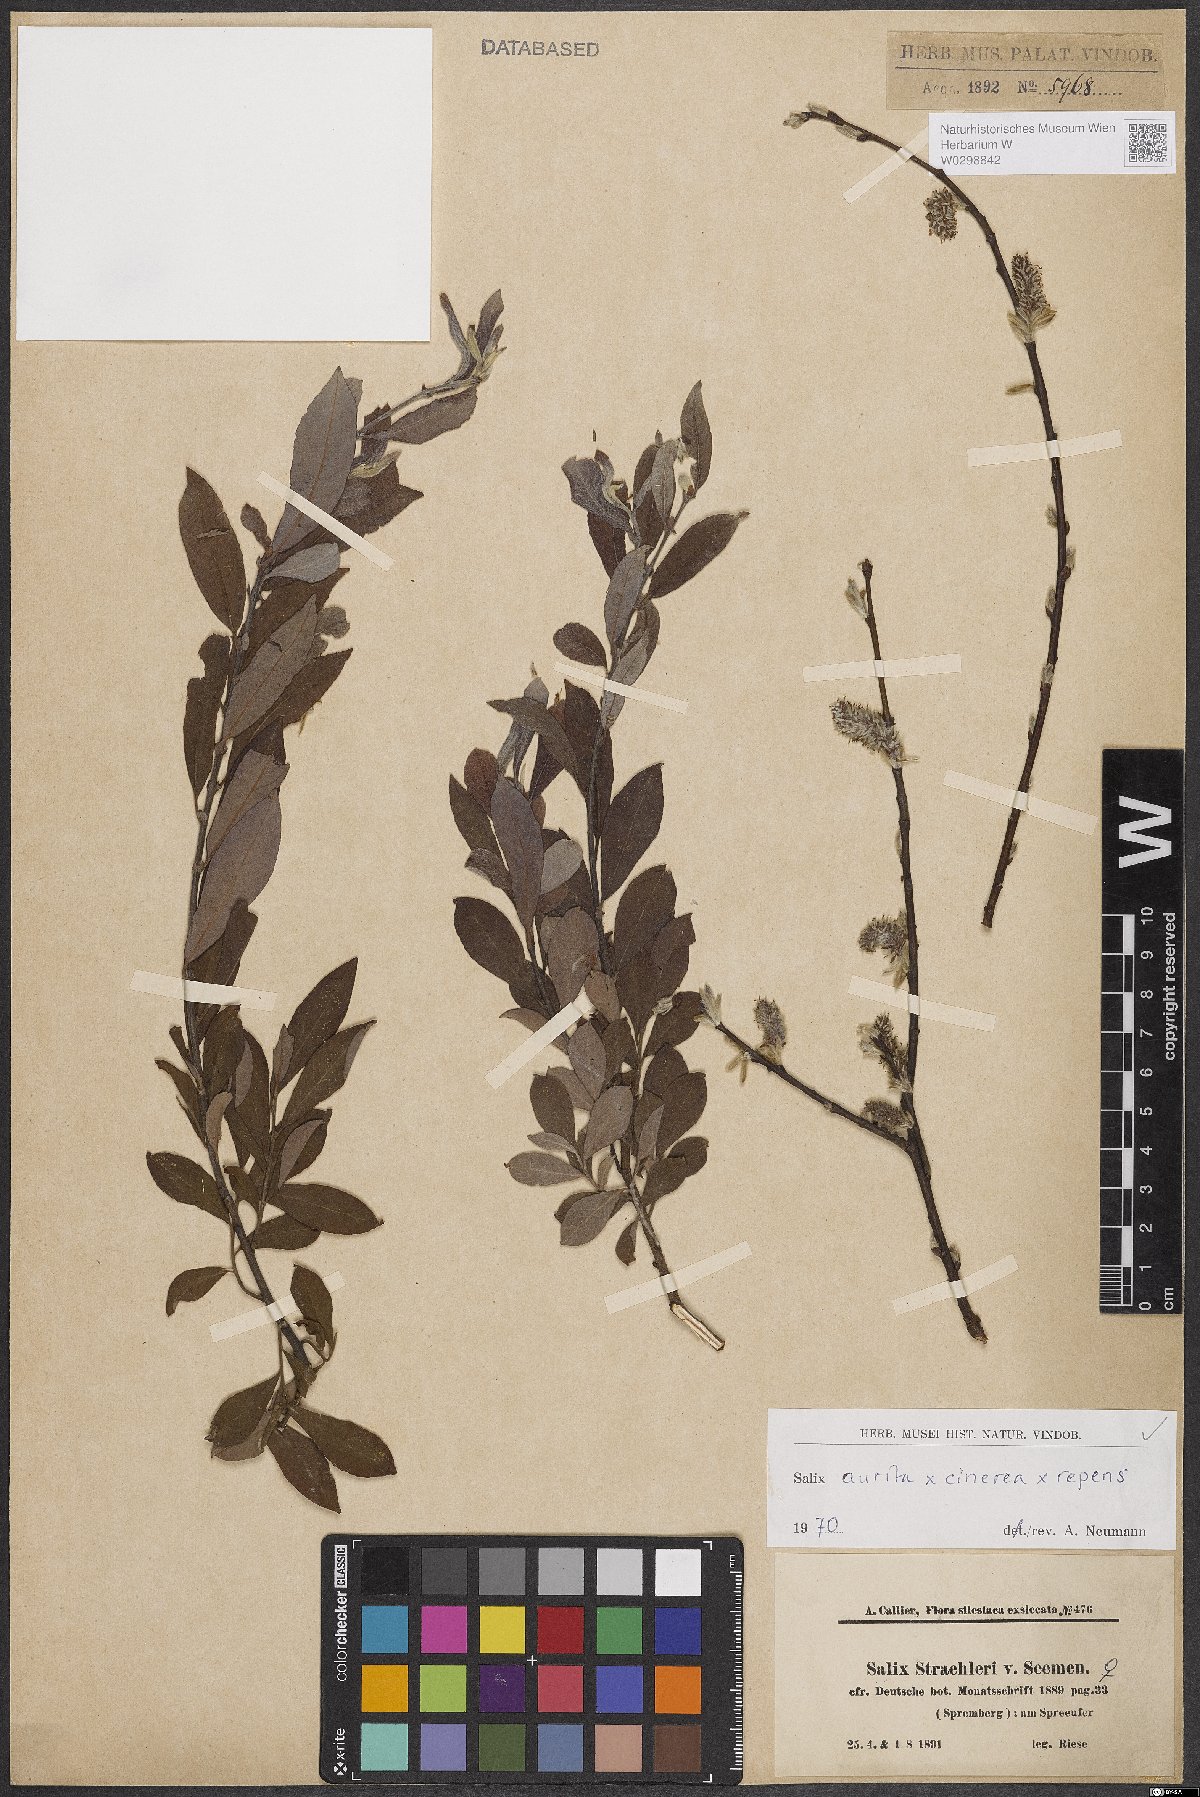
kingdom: Plantae
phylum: Tracheophyta
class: Magnoliopsida
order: Malpighiales
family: Salicaceae
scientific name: Salicaceae
